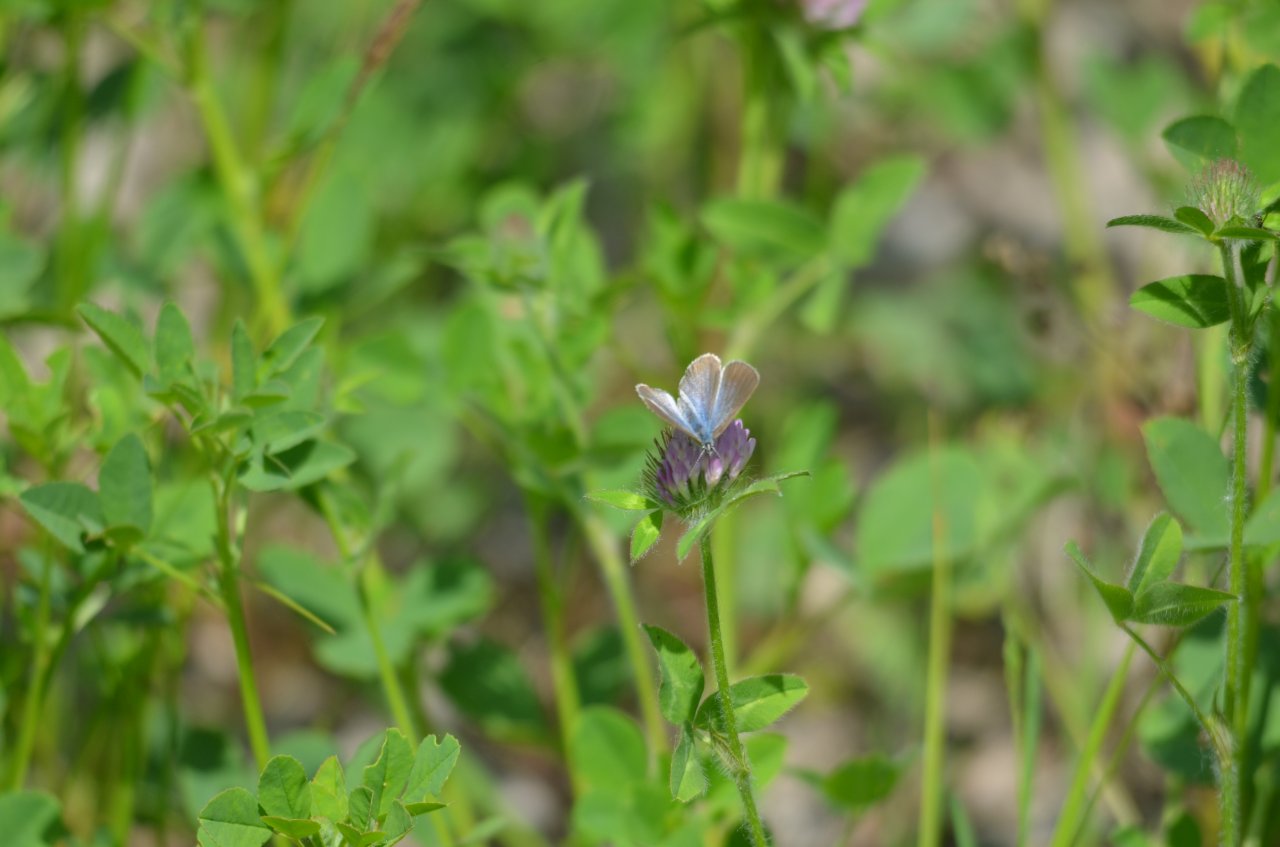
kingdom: Animalia
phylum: Arthropoda
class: Insecta
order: Lepidoptera
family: Lycaenidae
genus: Glaucopsyche
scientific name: Glaucopsyche lygdamus
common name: Silvery Blue
